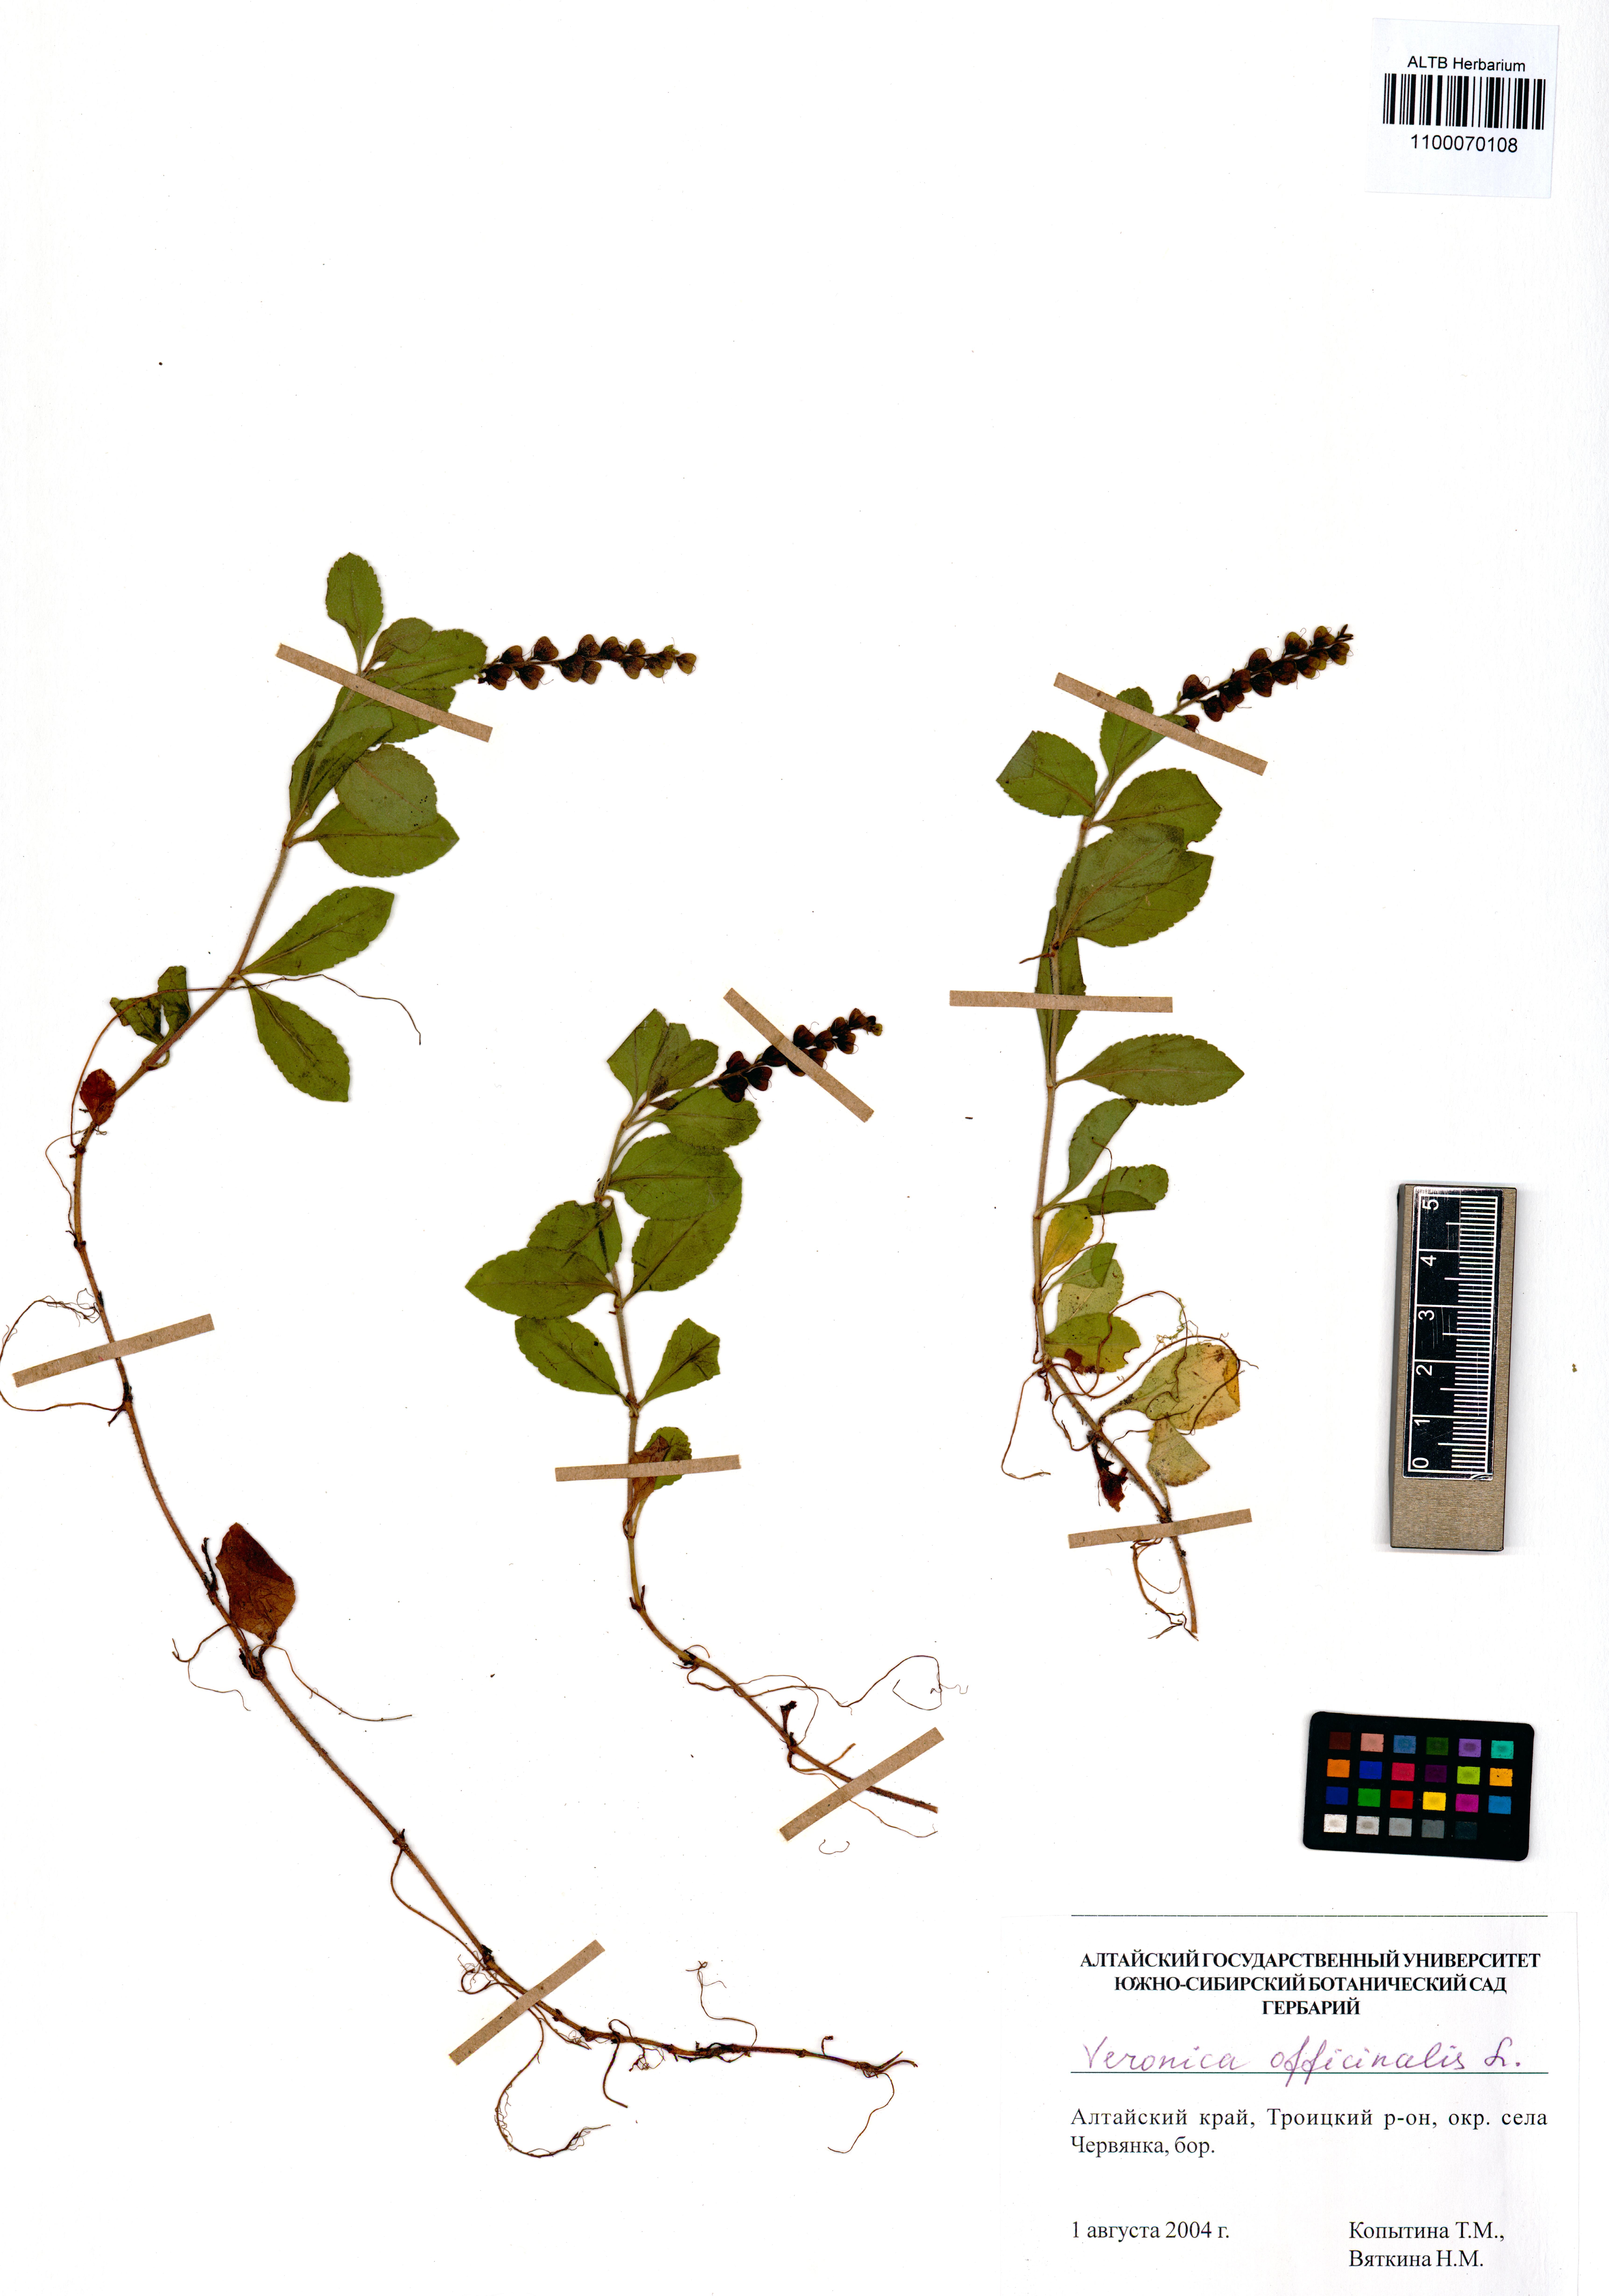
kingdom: Plantae
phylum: Tracheophyta
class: Magnoliopsida
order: Lamiales
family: Plantaginaceae
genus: Veronica
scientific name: Veronica officinalis
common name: Common speedwell
